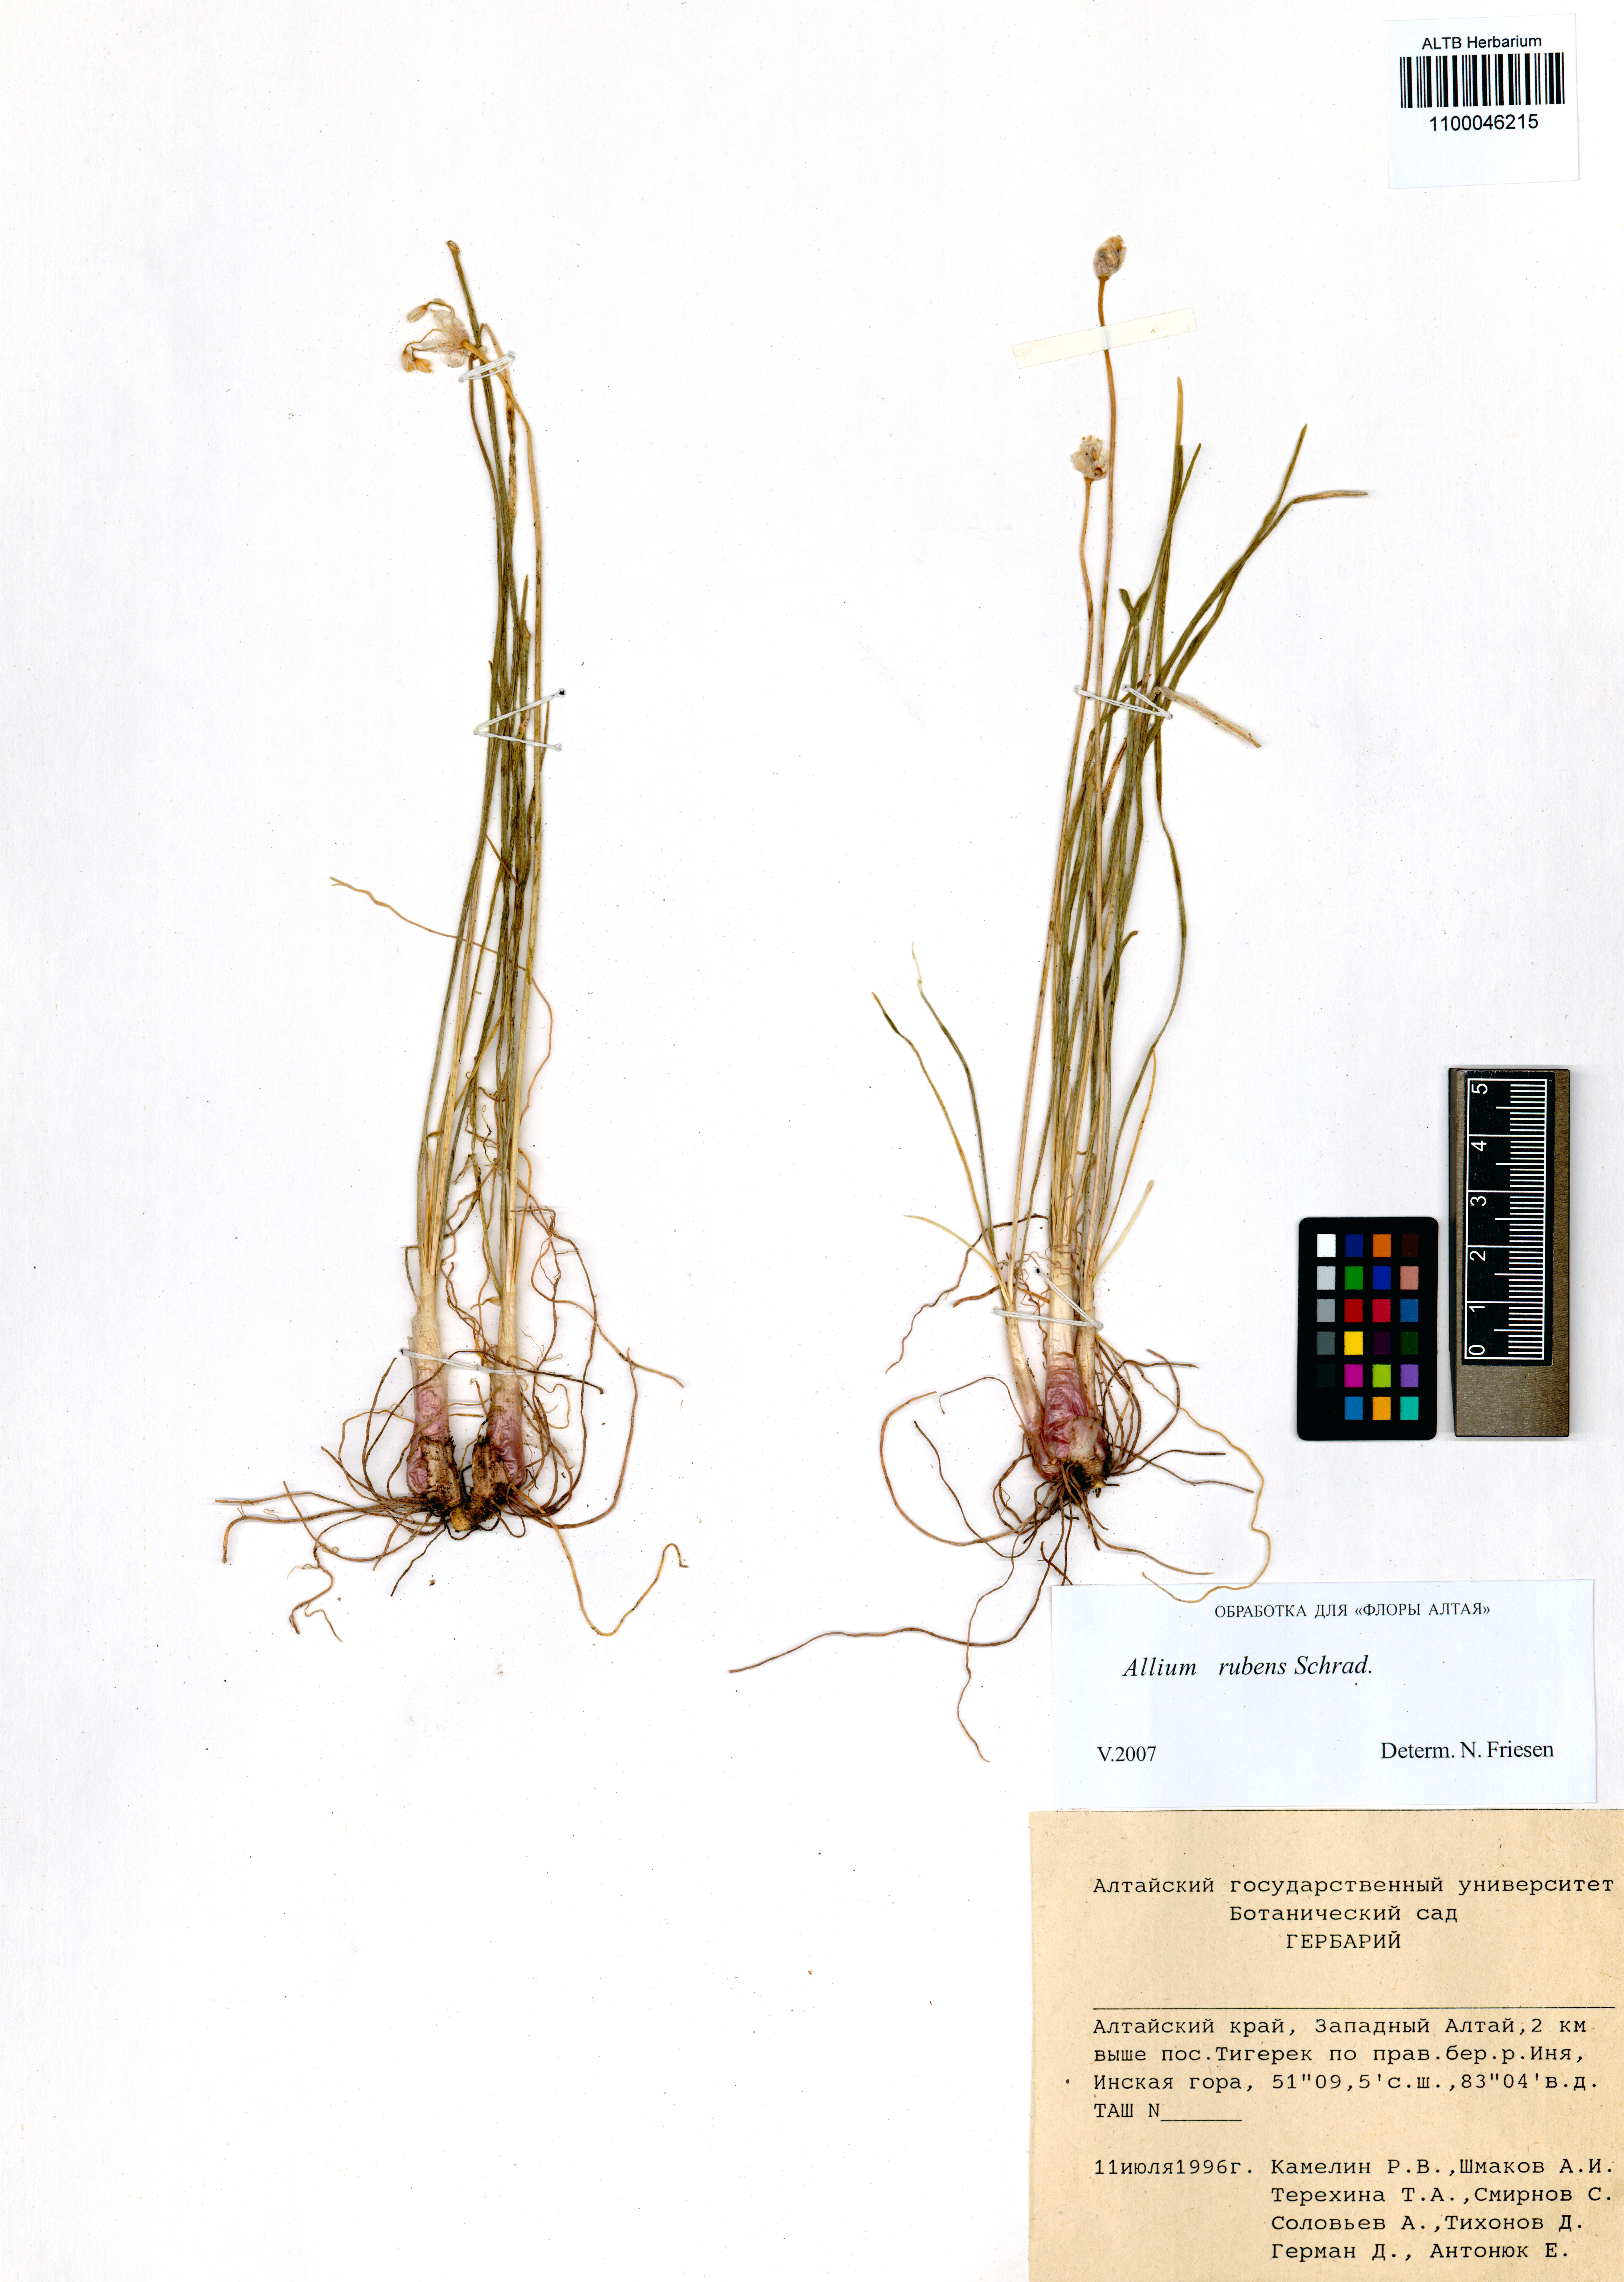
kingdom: Plantae
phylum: Tracheophyta
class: Liliopsida
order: Asparagales
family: Amaryllidaceae
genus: Allium
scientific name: Allium rubens
